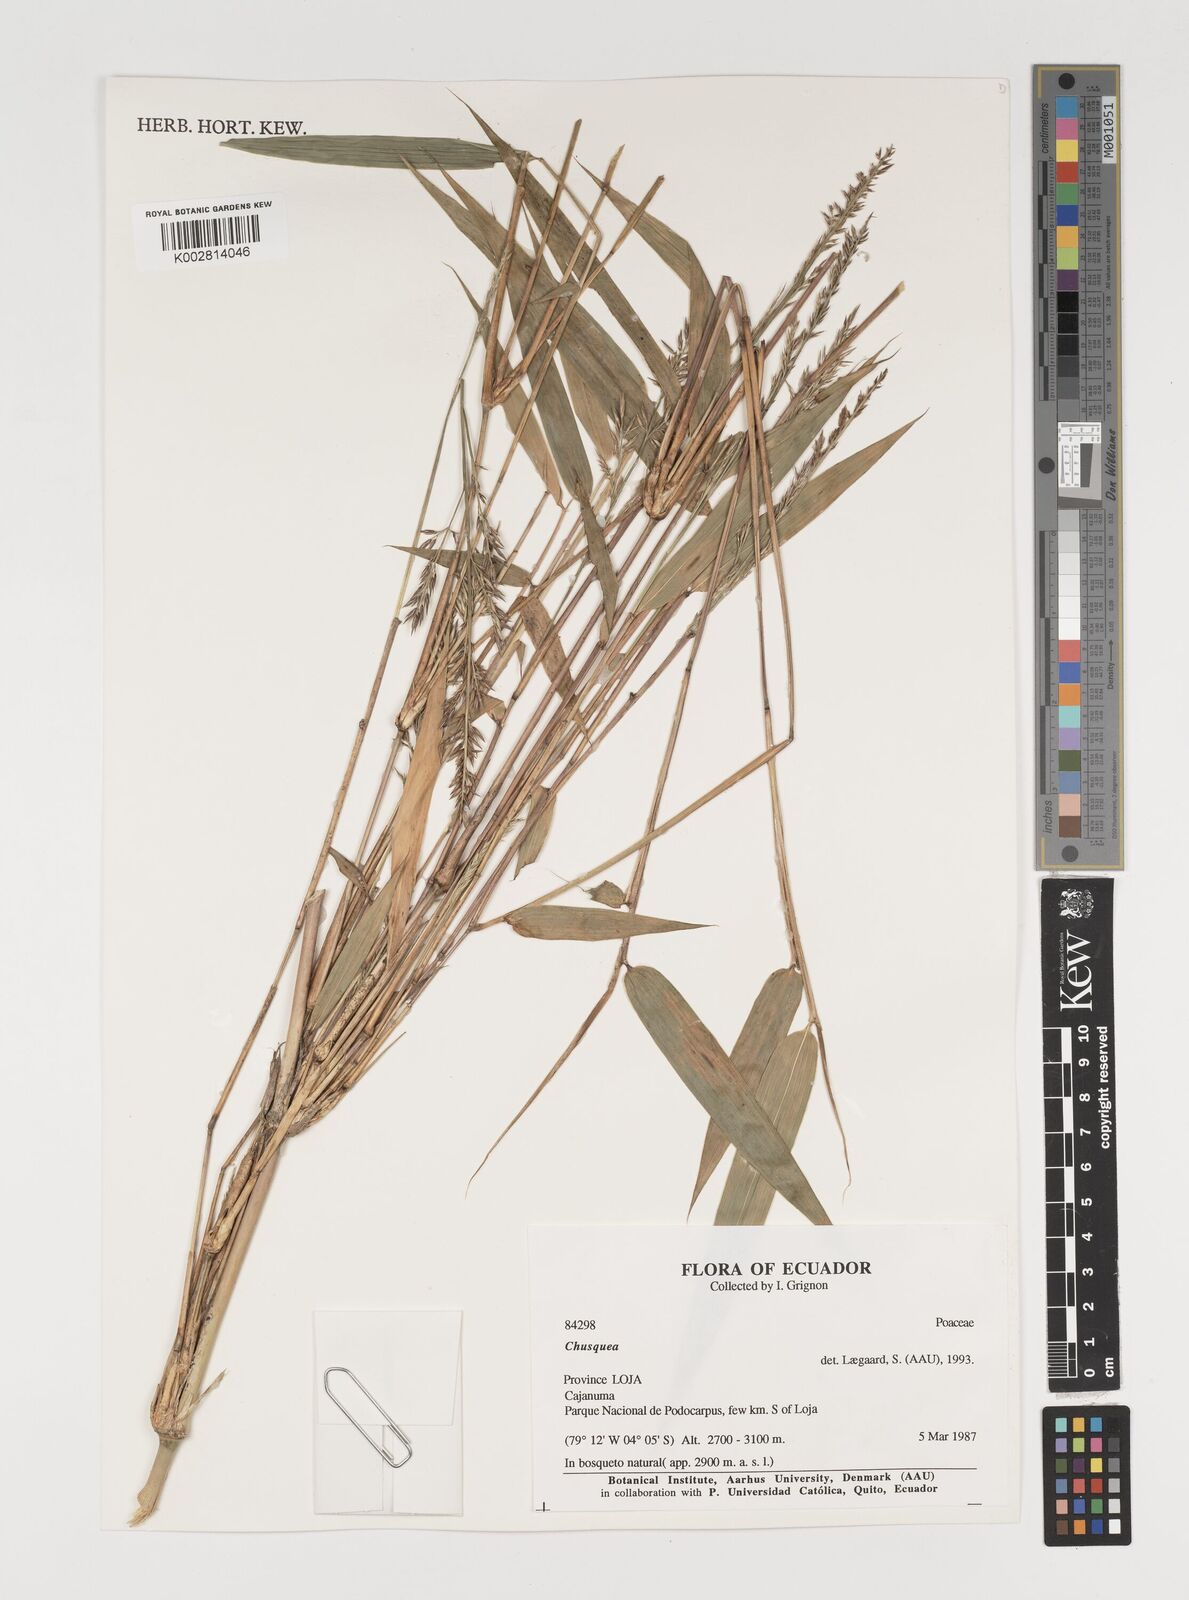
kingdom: Plantae
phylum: Tracheophyta
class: Liliopsida
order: Poales
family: Poaceae
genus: Chusquea
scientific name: Chusquea
